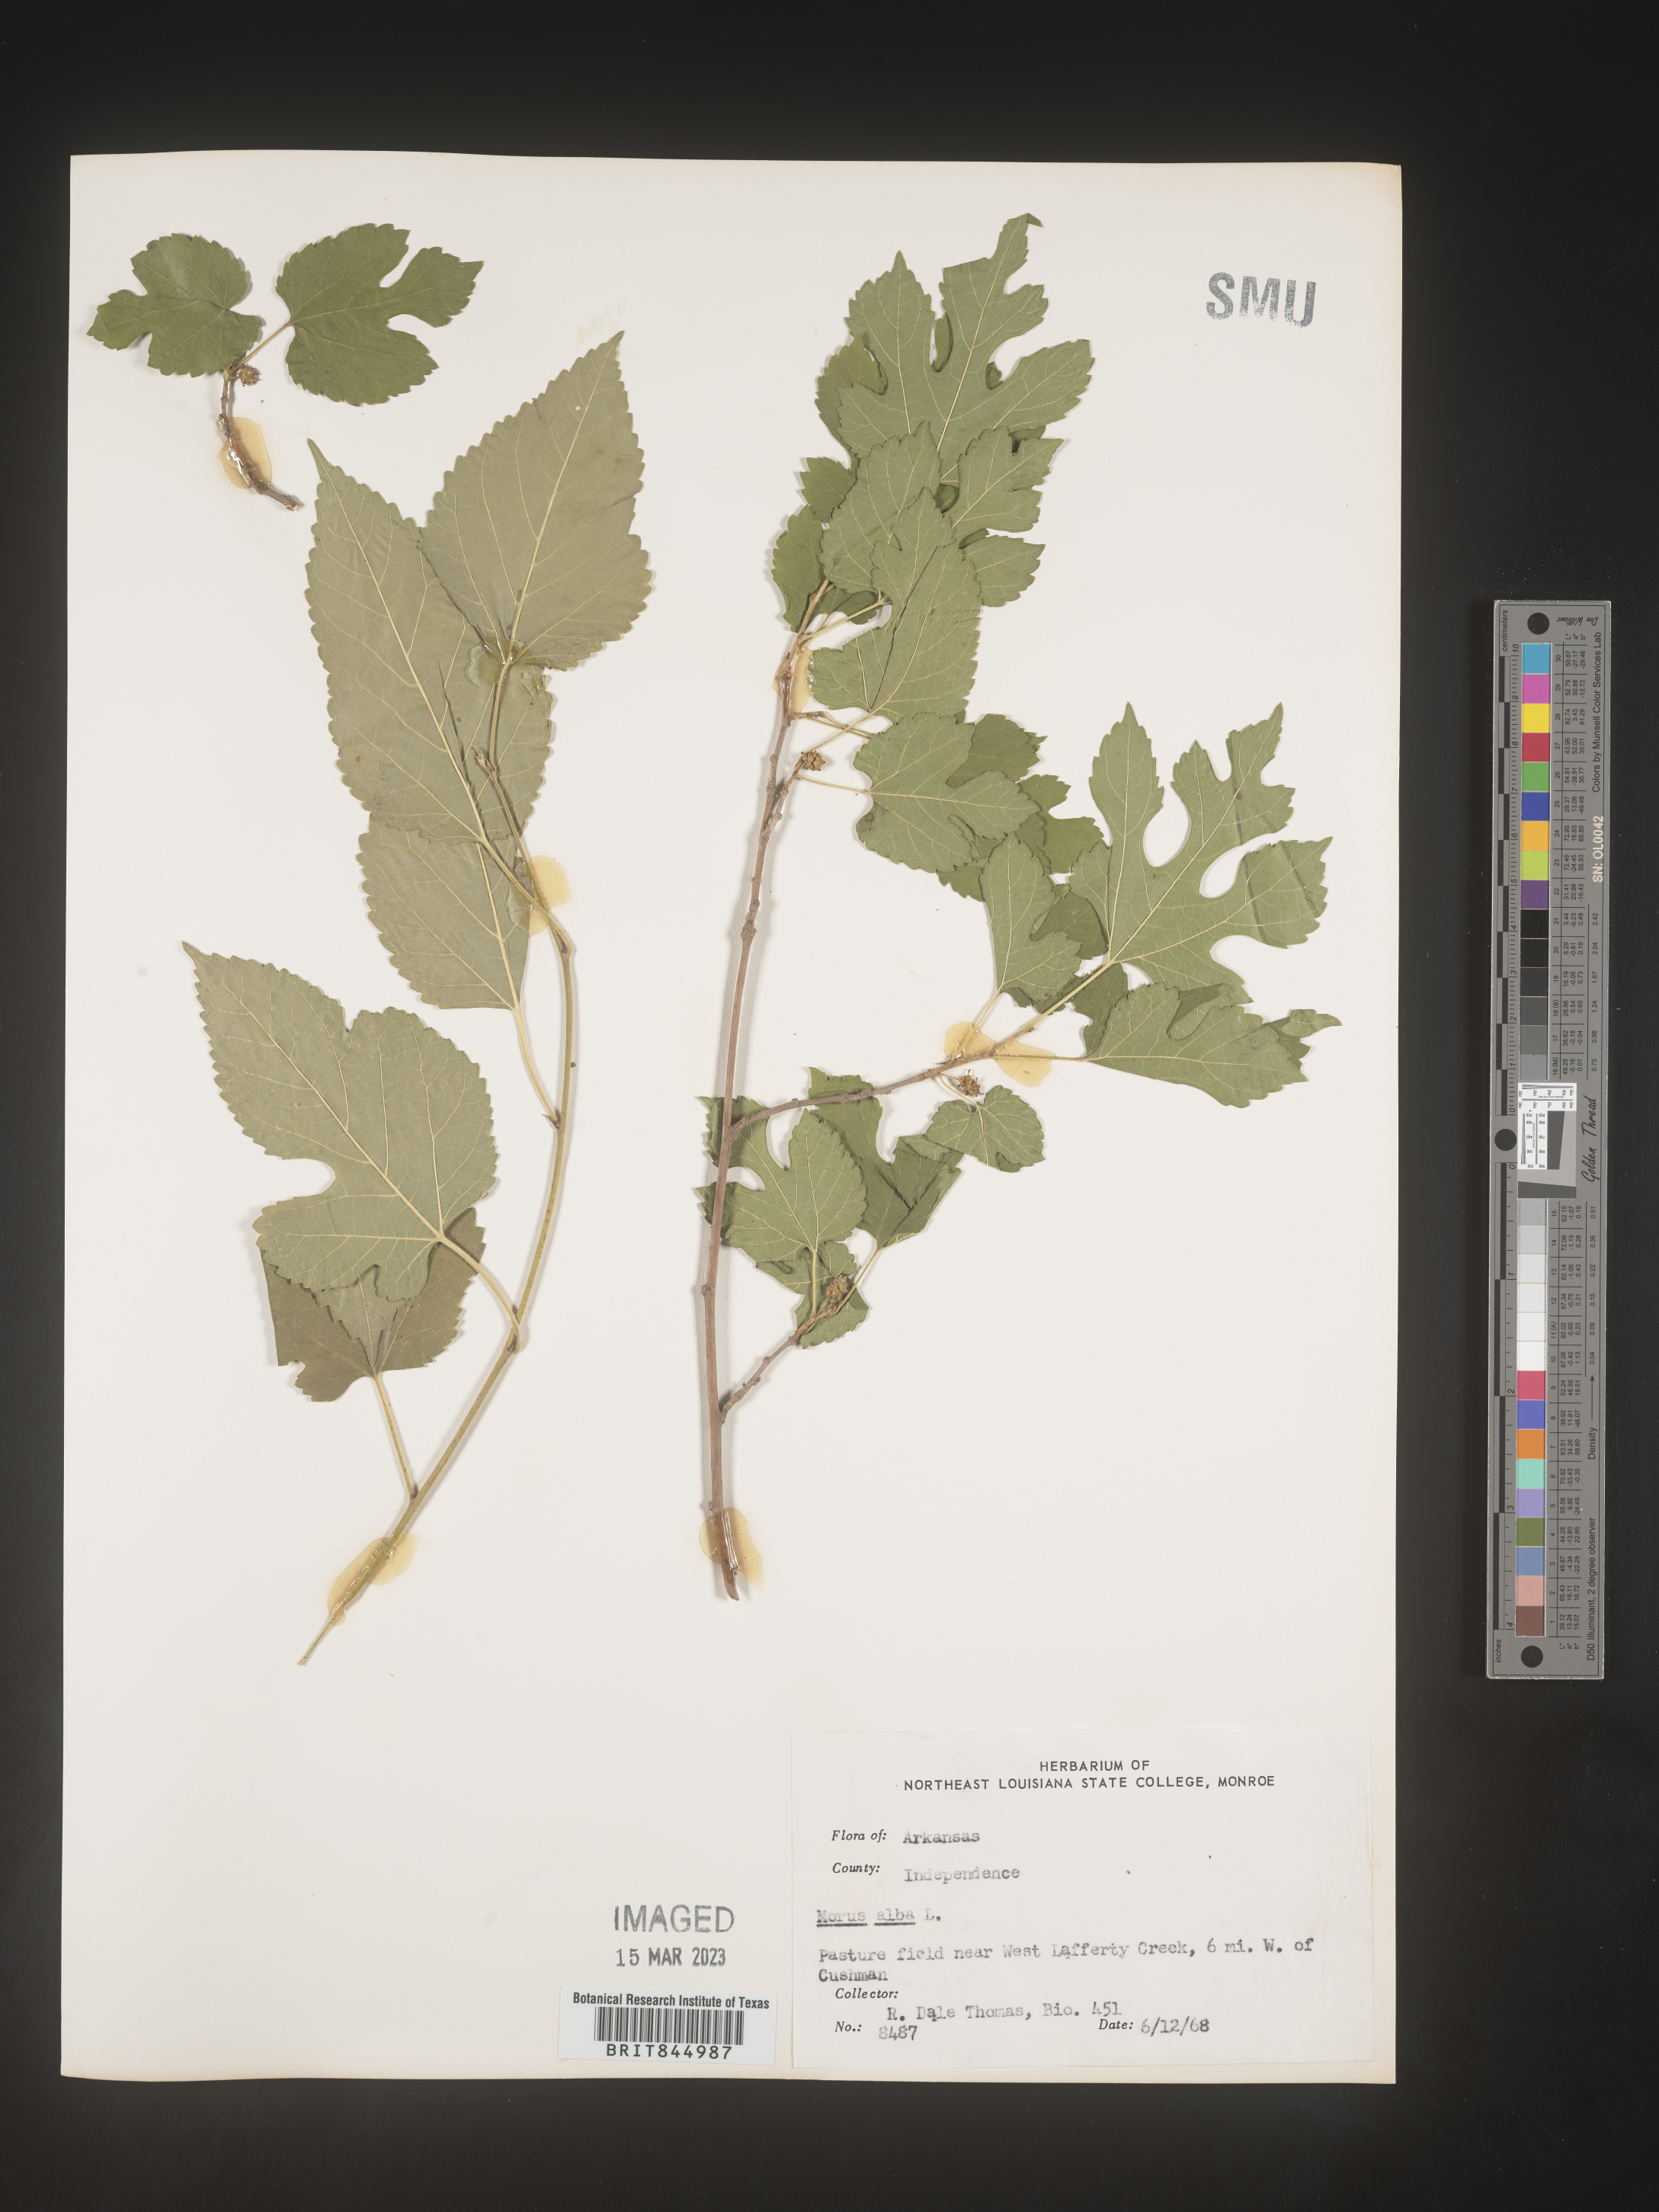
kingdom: Plantae
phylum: Tracheophyta
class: Magnoliopsida
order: Rosales
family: Moraceae
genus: Morus
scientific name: Morus alba
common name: White mulberry
